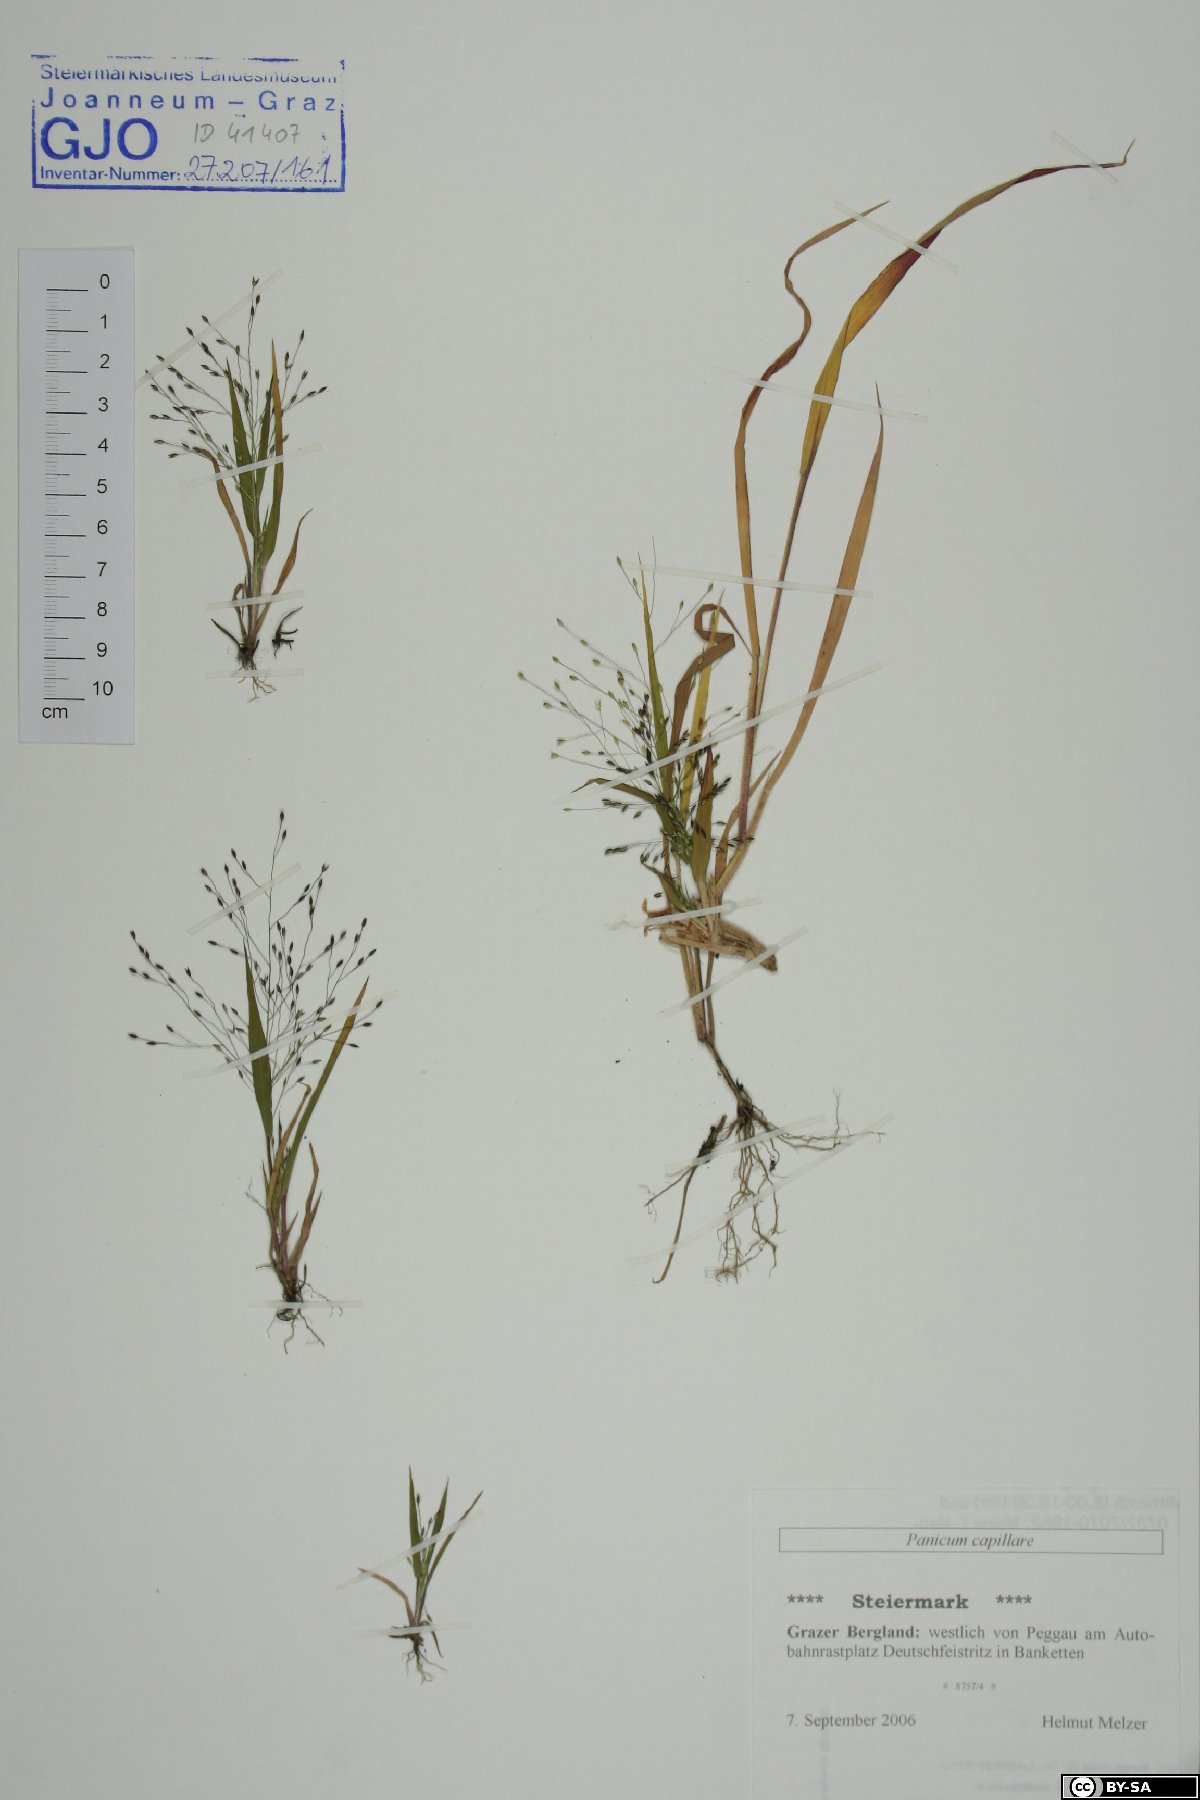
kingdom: Plantae
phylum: Tracheophyta
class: Liliopsida
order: Poales
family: Poaceae
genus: Panicum
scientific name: Panicum capillare
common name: Witch-grass
